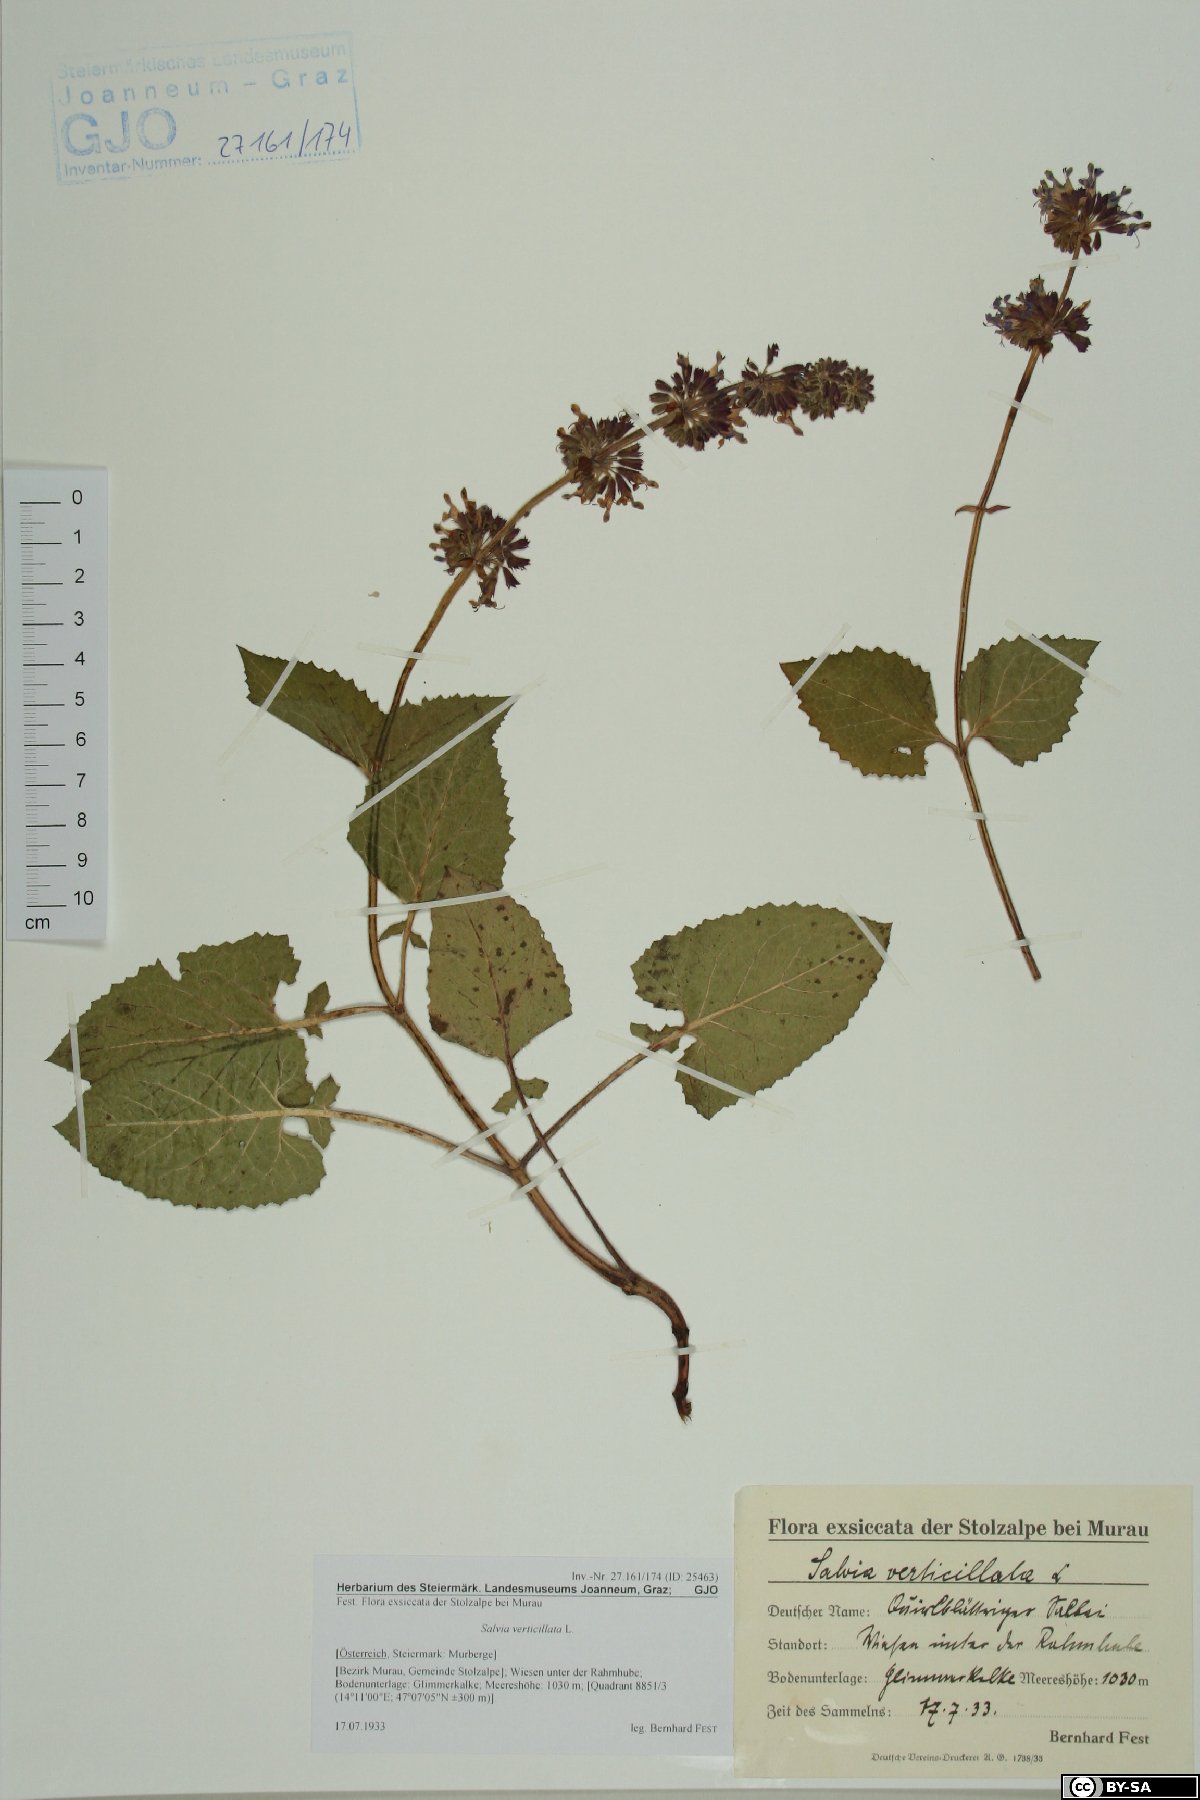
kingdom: Plantae
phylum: Tracheophyta
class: Magnoliopsida
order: Lamiales
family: Lamiaceae
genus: Salvia
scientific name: Salvia verticillata
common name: Whorled clary
